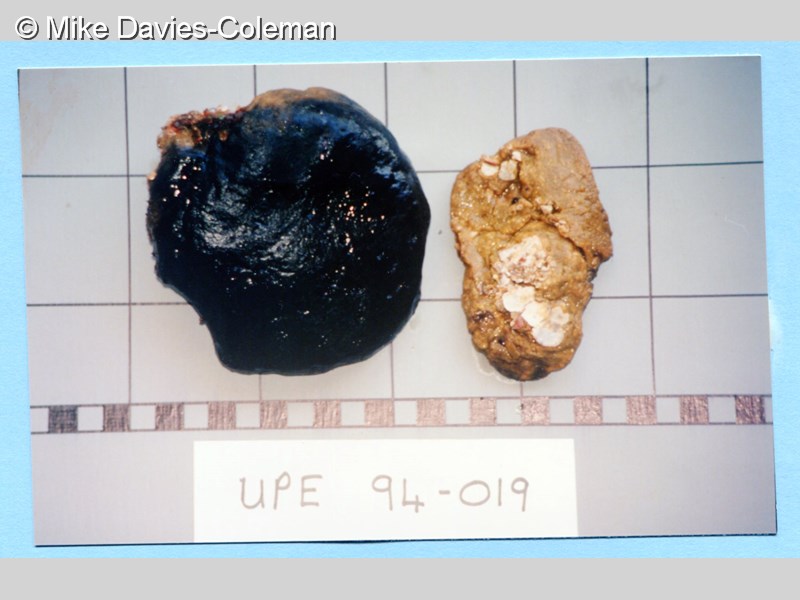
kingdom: Animalia
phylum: Porifera
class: Demospongiae
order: Poecilosclerida
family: Guitarridae
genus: Guitarra
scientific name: Guitarra fimbriata
